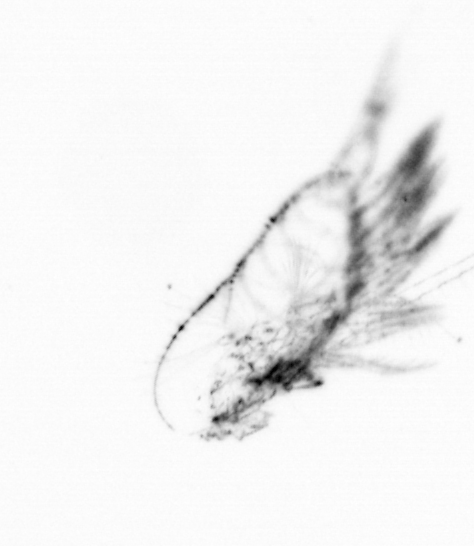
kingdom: Animalia
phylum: Arthropoda
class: Copepoda
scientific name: Copepoda
